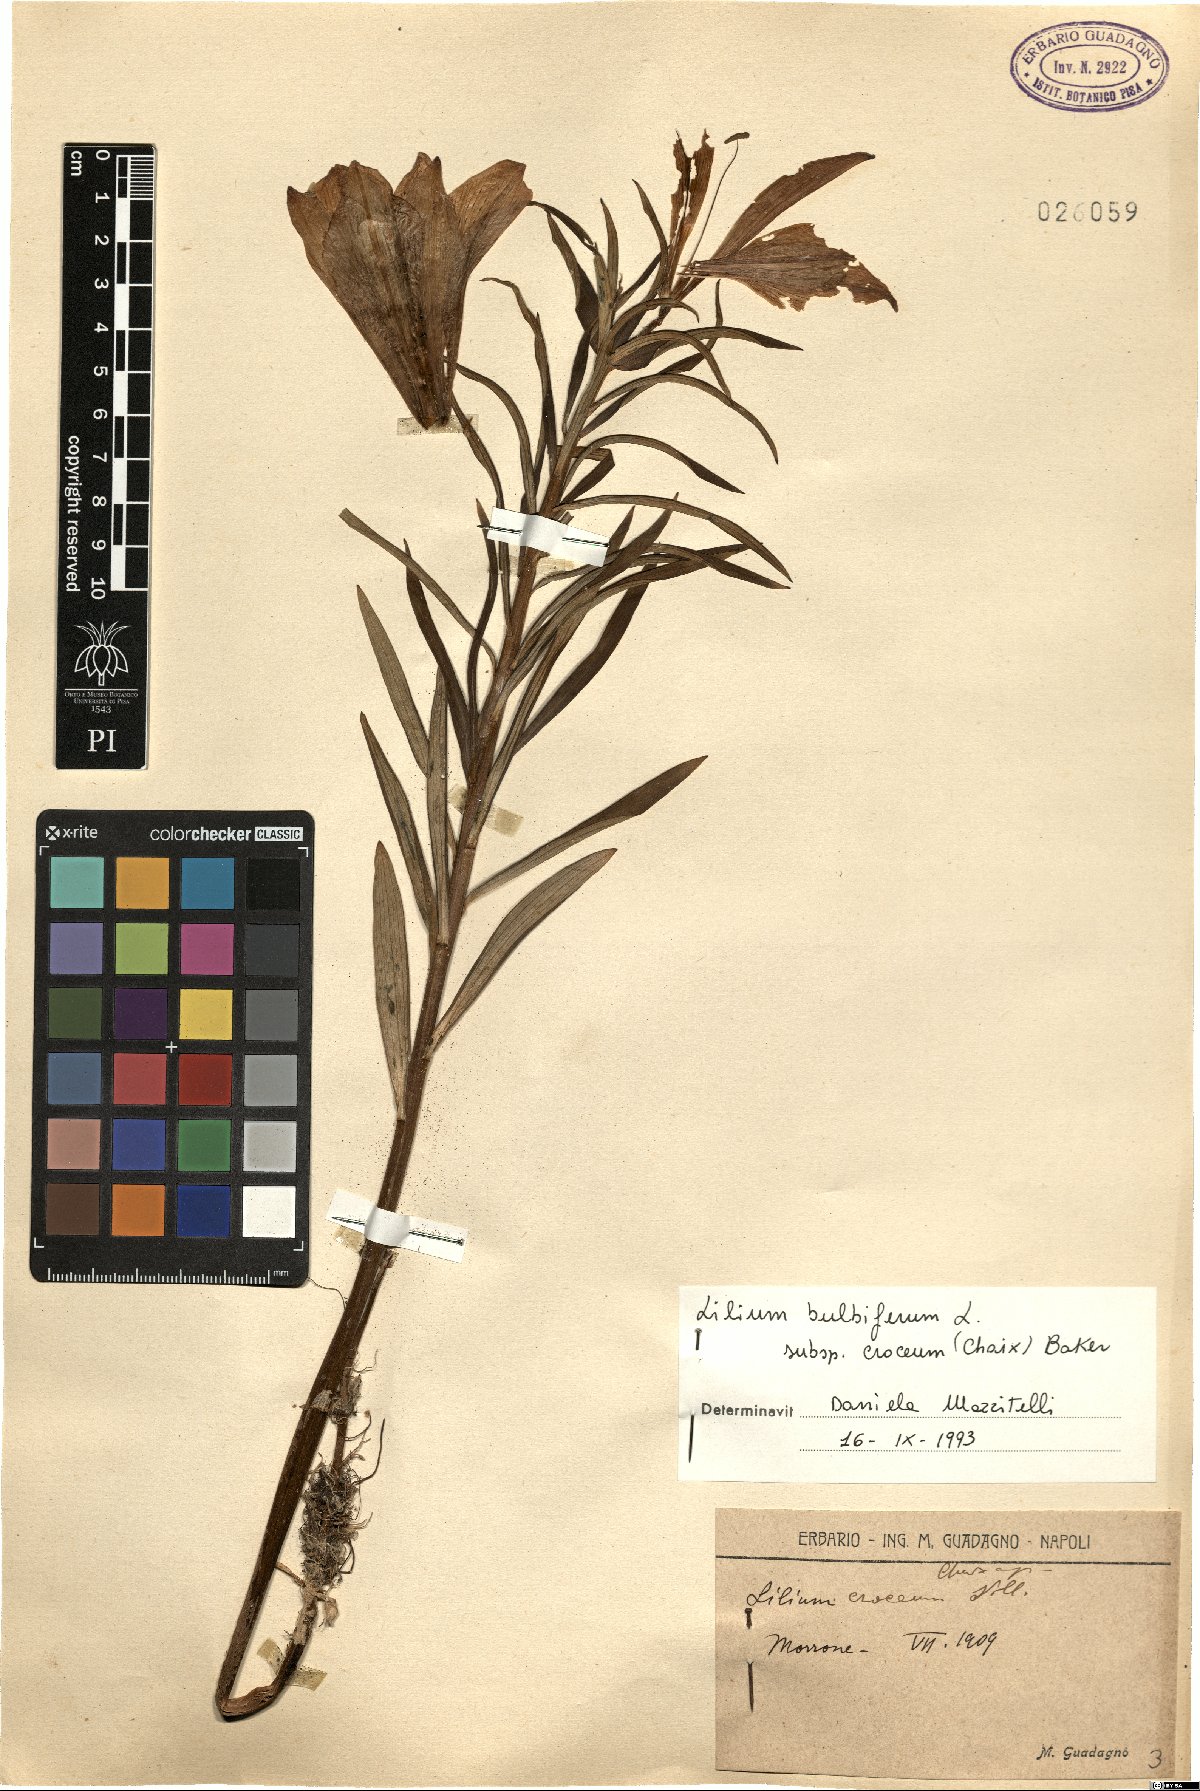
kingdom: Plantae
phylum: Tracheophyta
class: Liliopsida
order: Liliales
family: Liliaceae
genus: Lilium
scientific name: Lilium bulbiferum
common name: Orange lily
